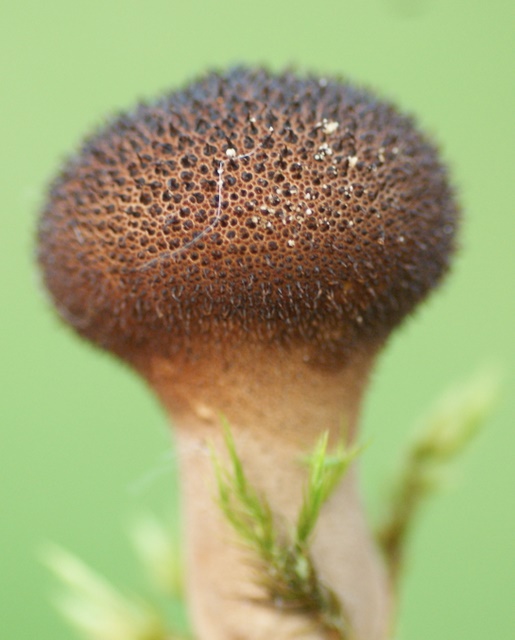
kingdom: Fungi
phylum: Basidiomycota
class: Agaricomycetes
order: Agaricales
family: Lycoperdaceae
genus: Lycoperdon
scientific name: Lycoperdon nigrescens
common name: sortagtig støvbold
